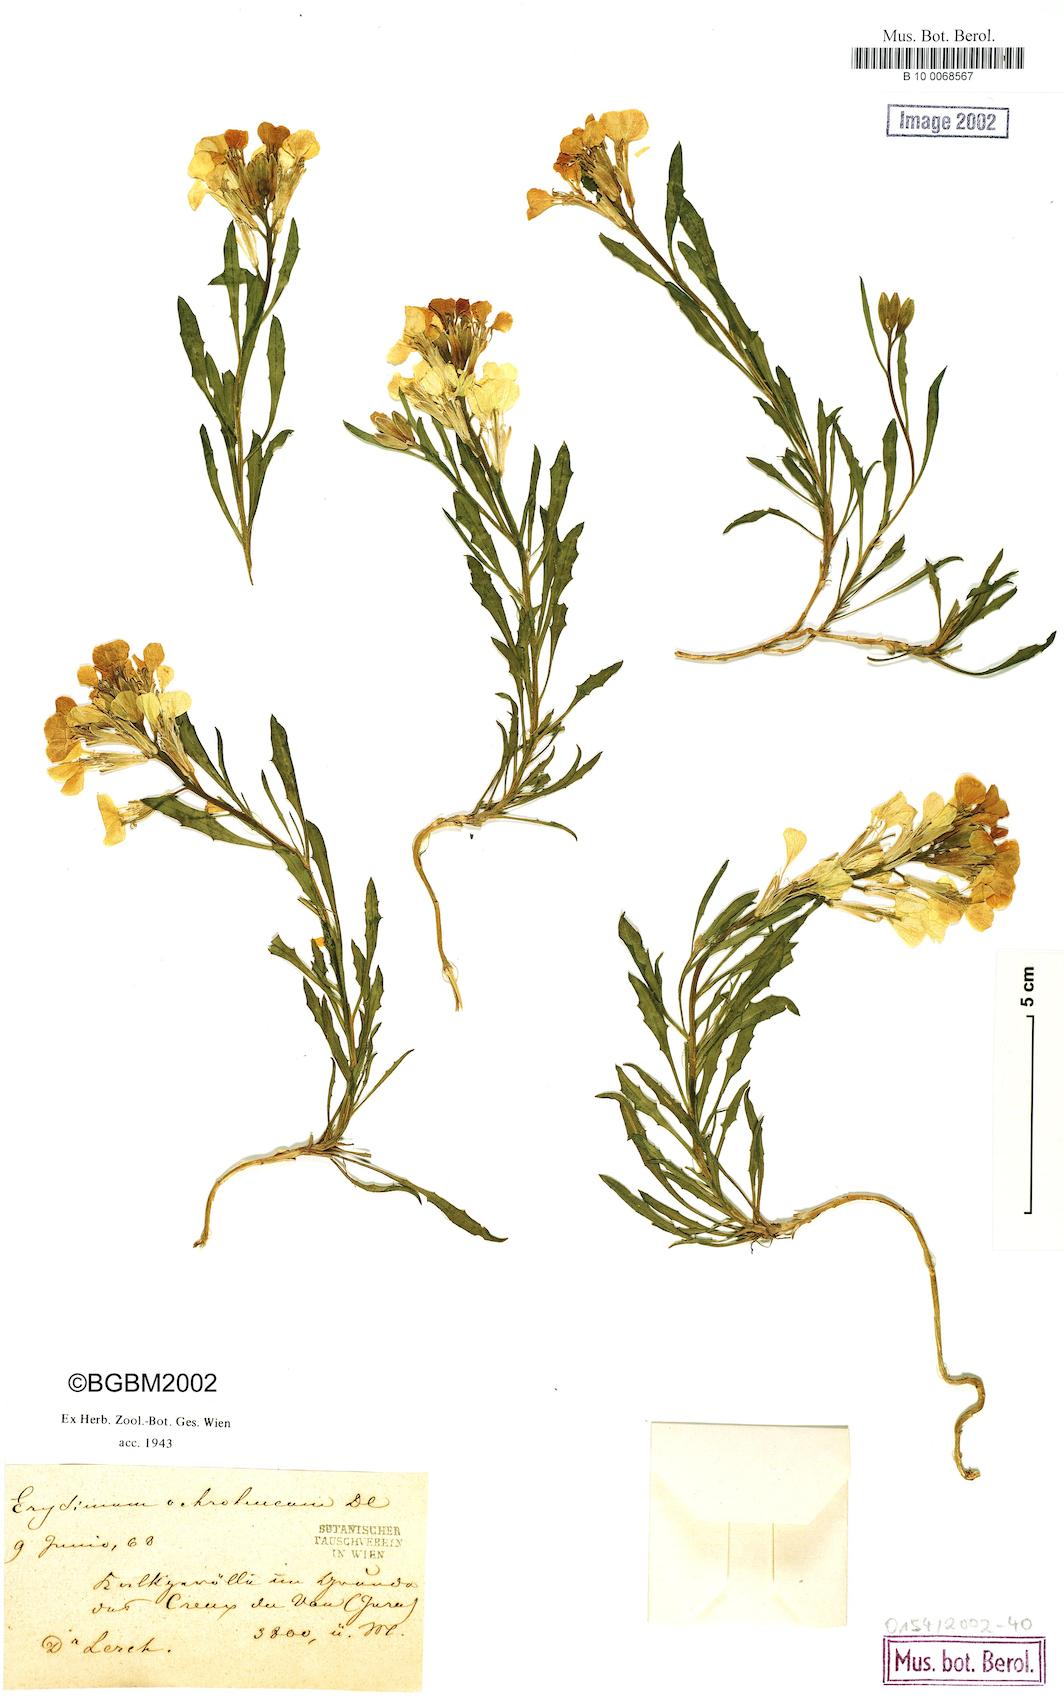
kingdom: Plantae
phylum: Tracheophyta
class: Magnoliopsida
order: Brassicales
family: Brassicaceae
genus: Erysimum
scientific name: Erysimum humile
